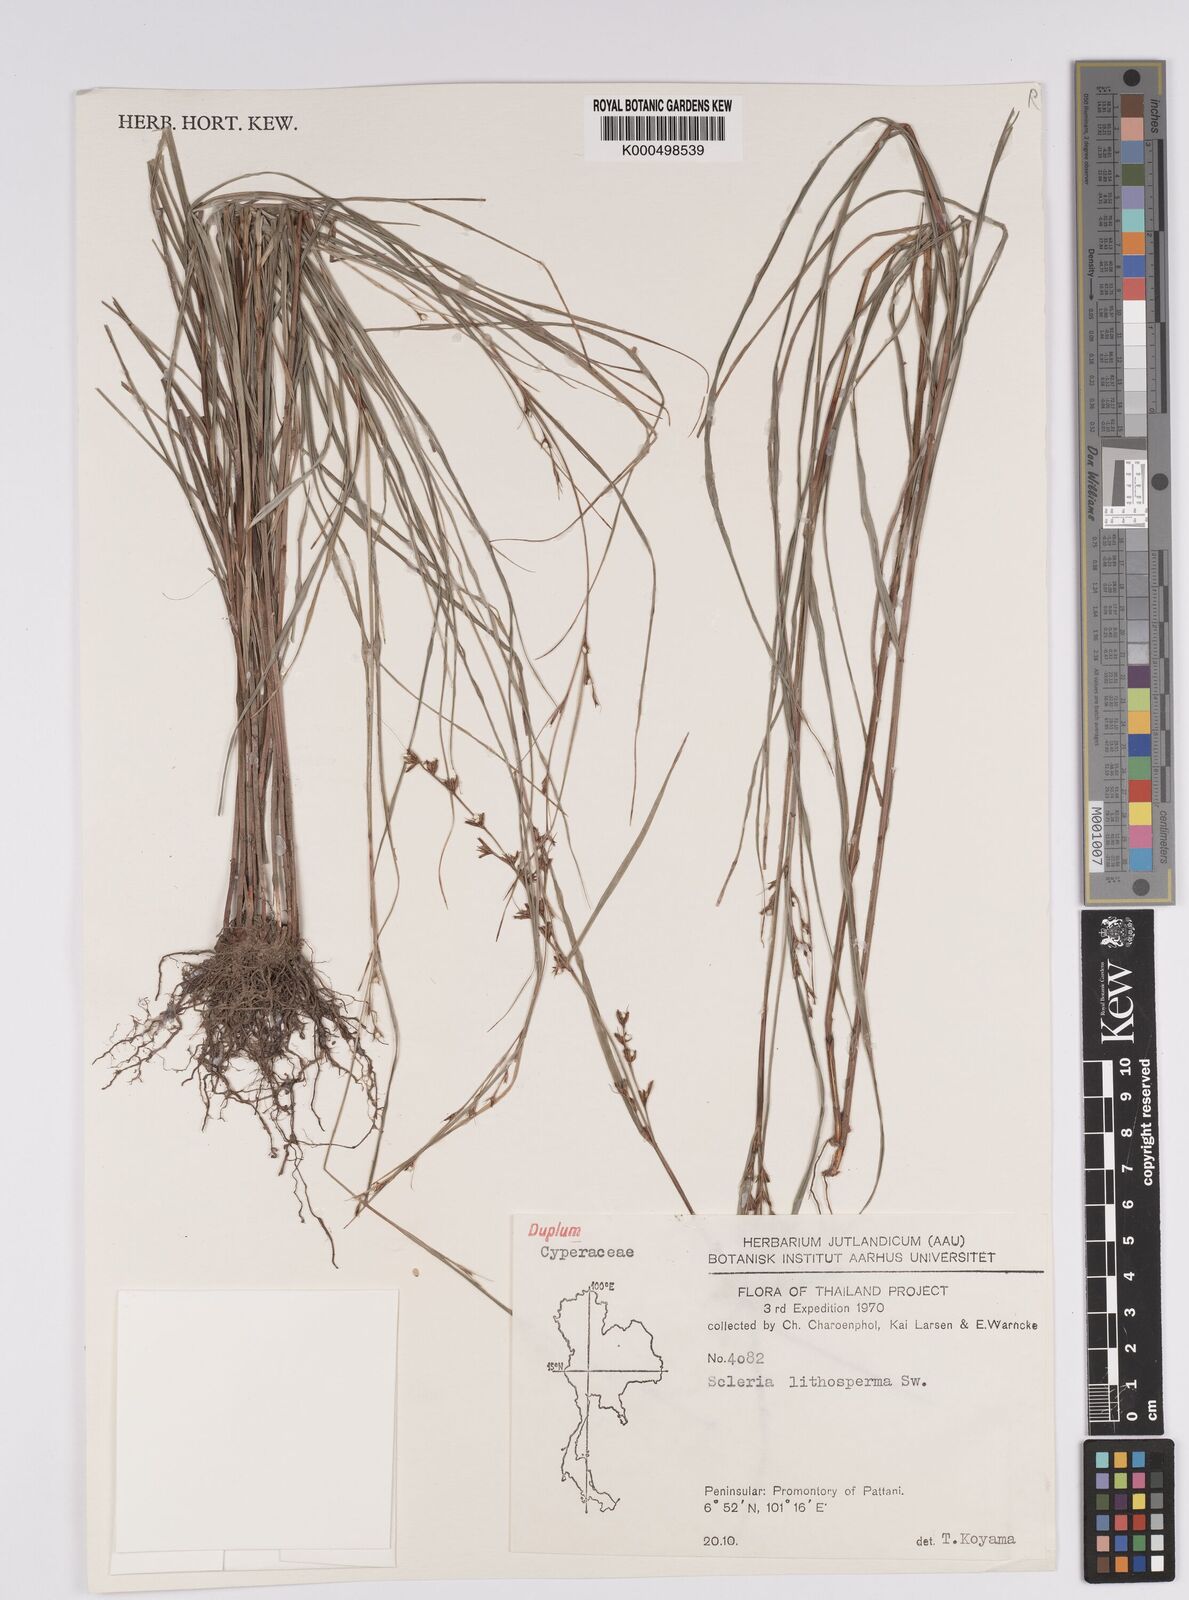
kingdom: Plantae
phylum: Tracheophyta
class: Liliopsida
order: Poales
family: Cyperaceae
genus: Scleria
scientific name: Scleria lithosperma
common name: Florida keys nut-rush
